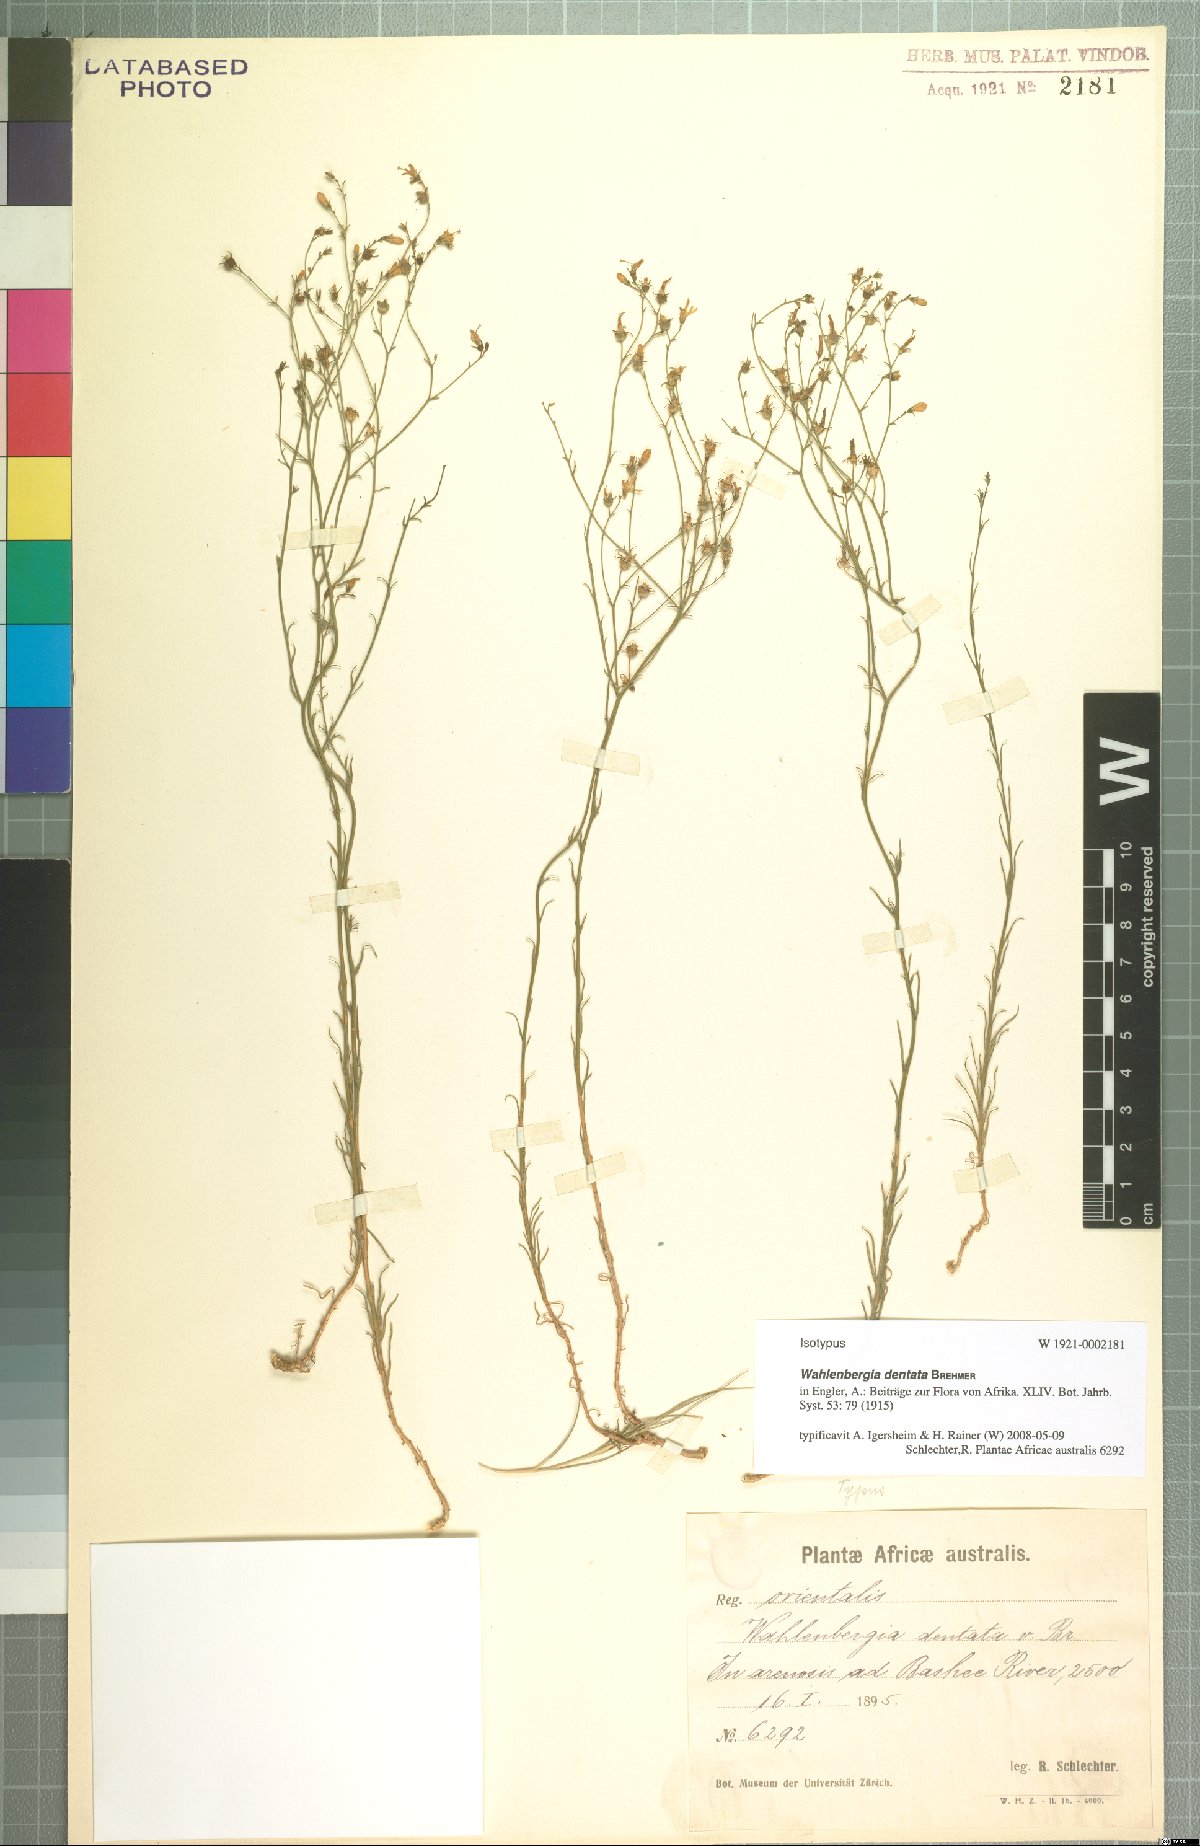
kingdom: Plantae
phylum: Tracheophyta
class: Magnoliopsida
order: Asterales
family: Campanulaceae
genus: Wahlenbergia
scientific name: Wahlenbergia dentata
